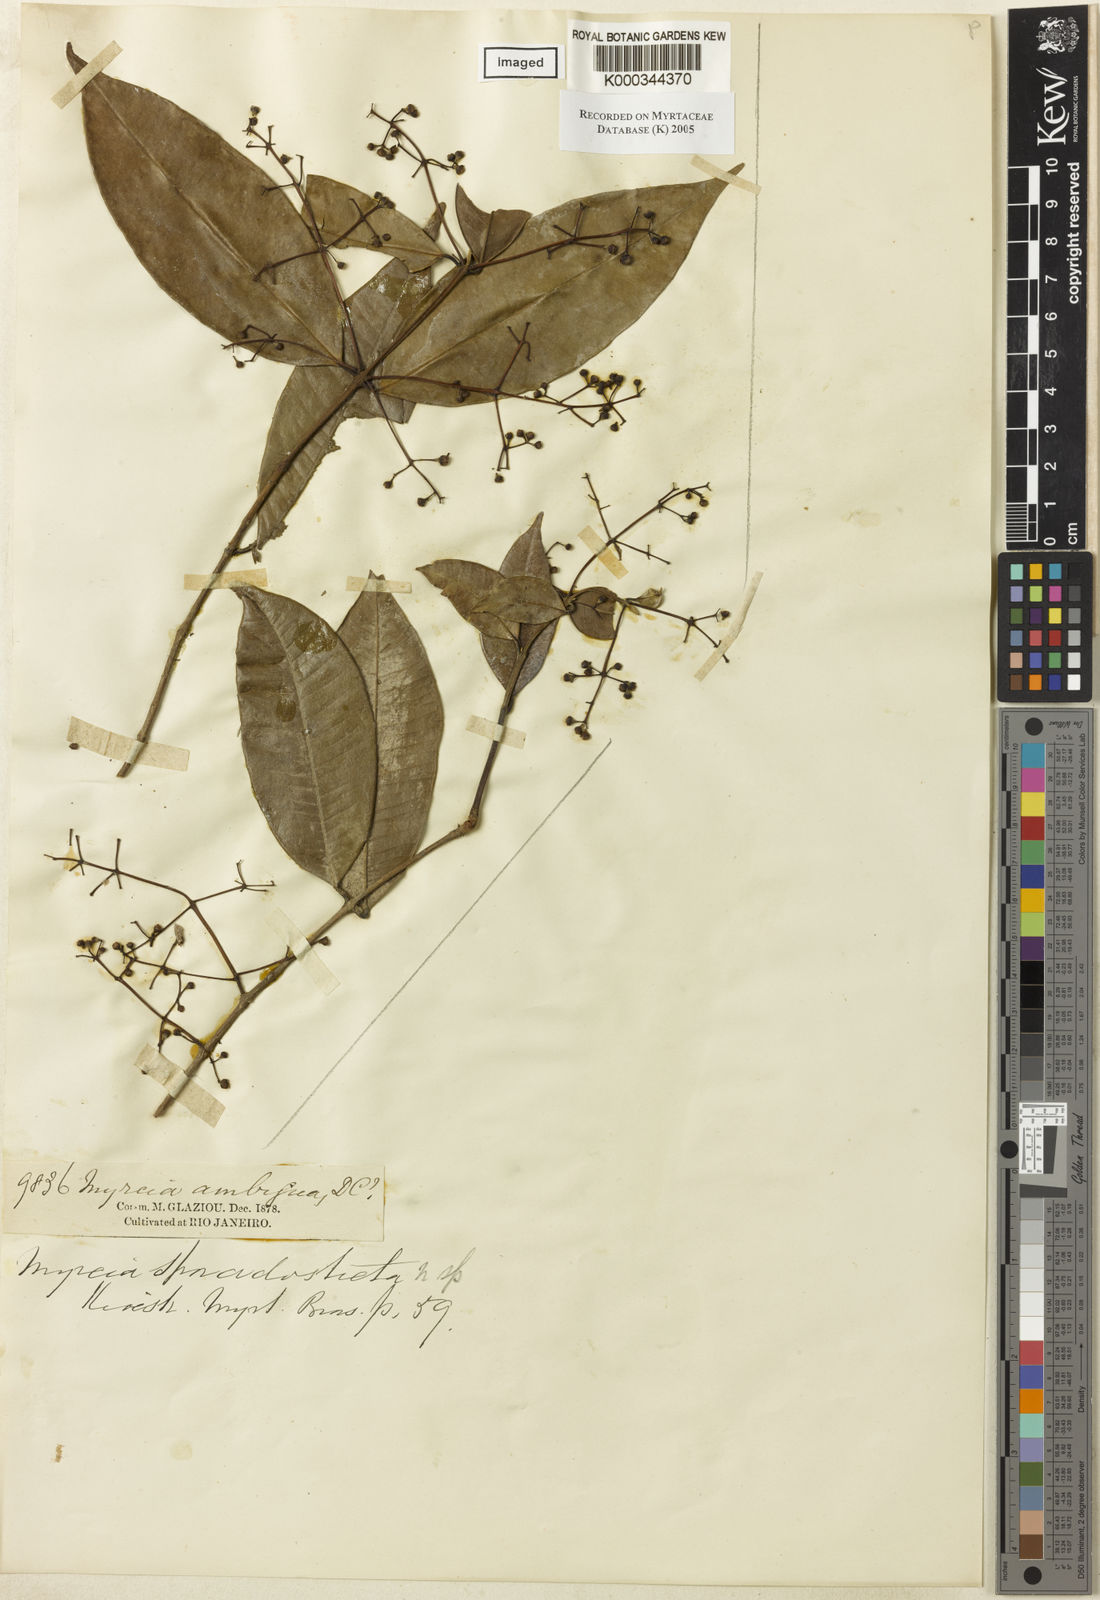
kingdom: Plantae
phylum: Tracheophyta
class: Magnoliopsida
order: Myrtales
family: Myrtaceae
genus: Myrcia
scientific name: Myrcia sporadosticta
